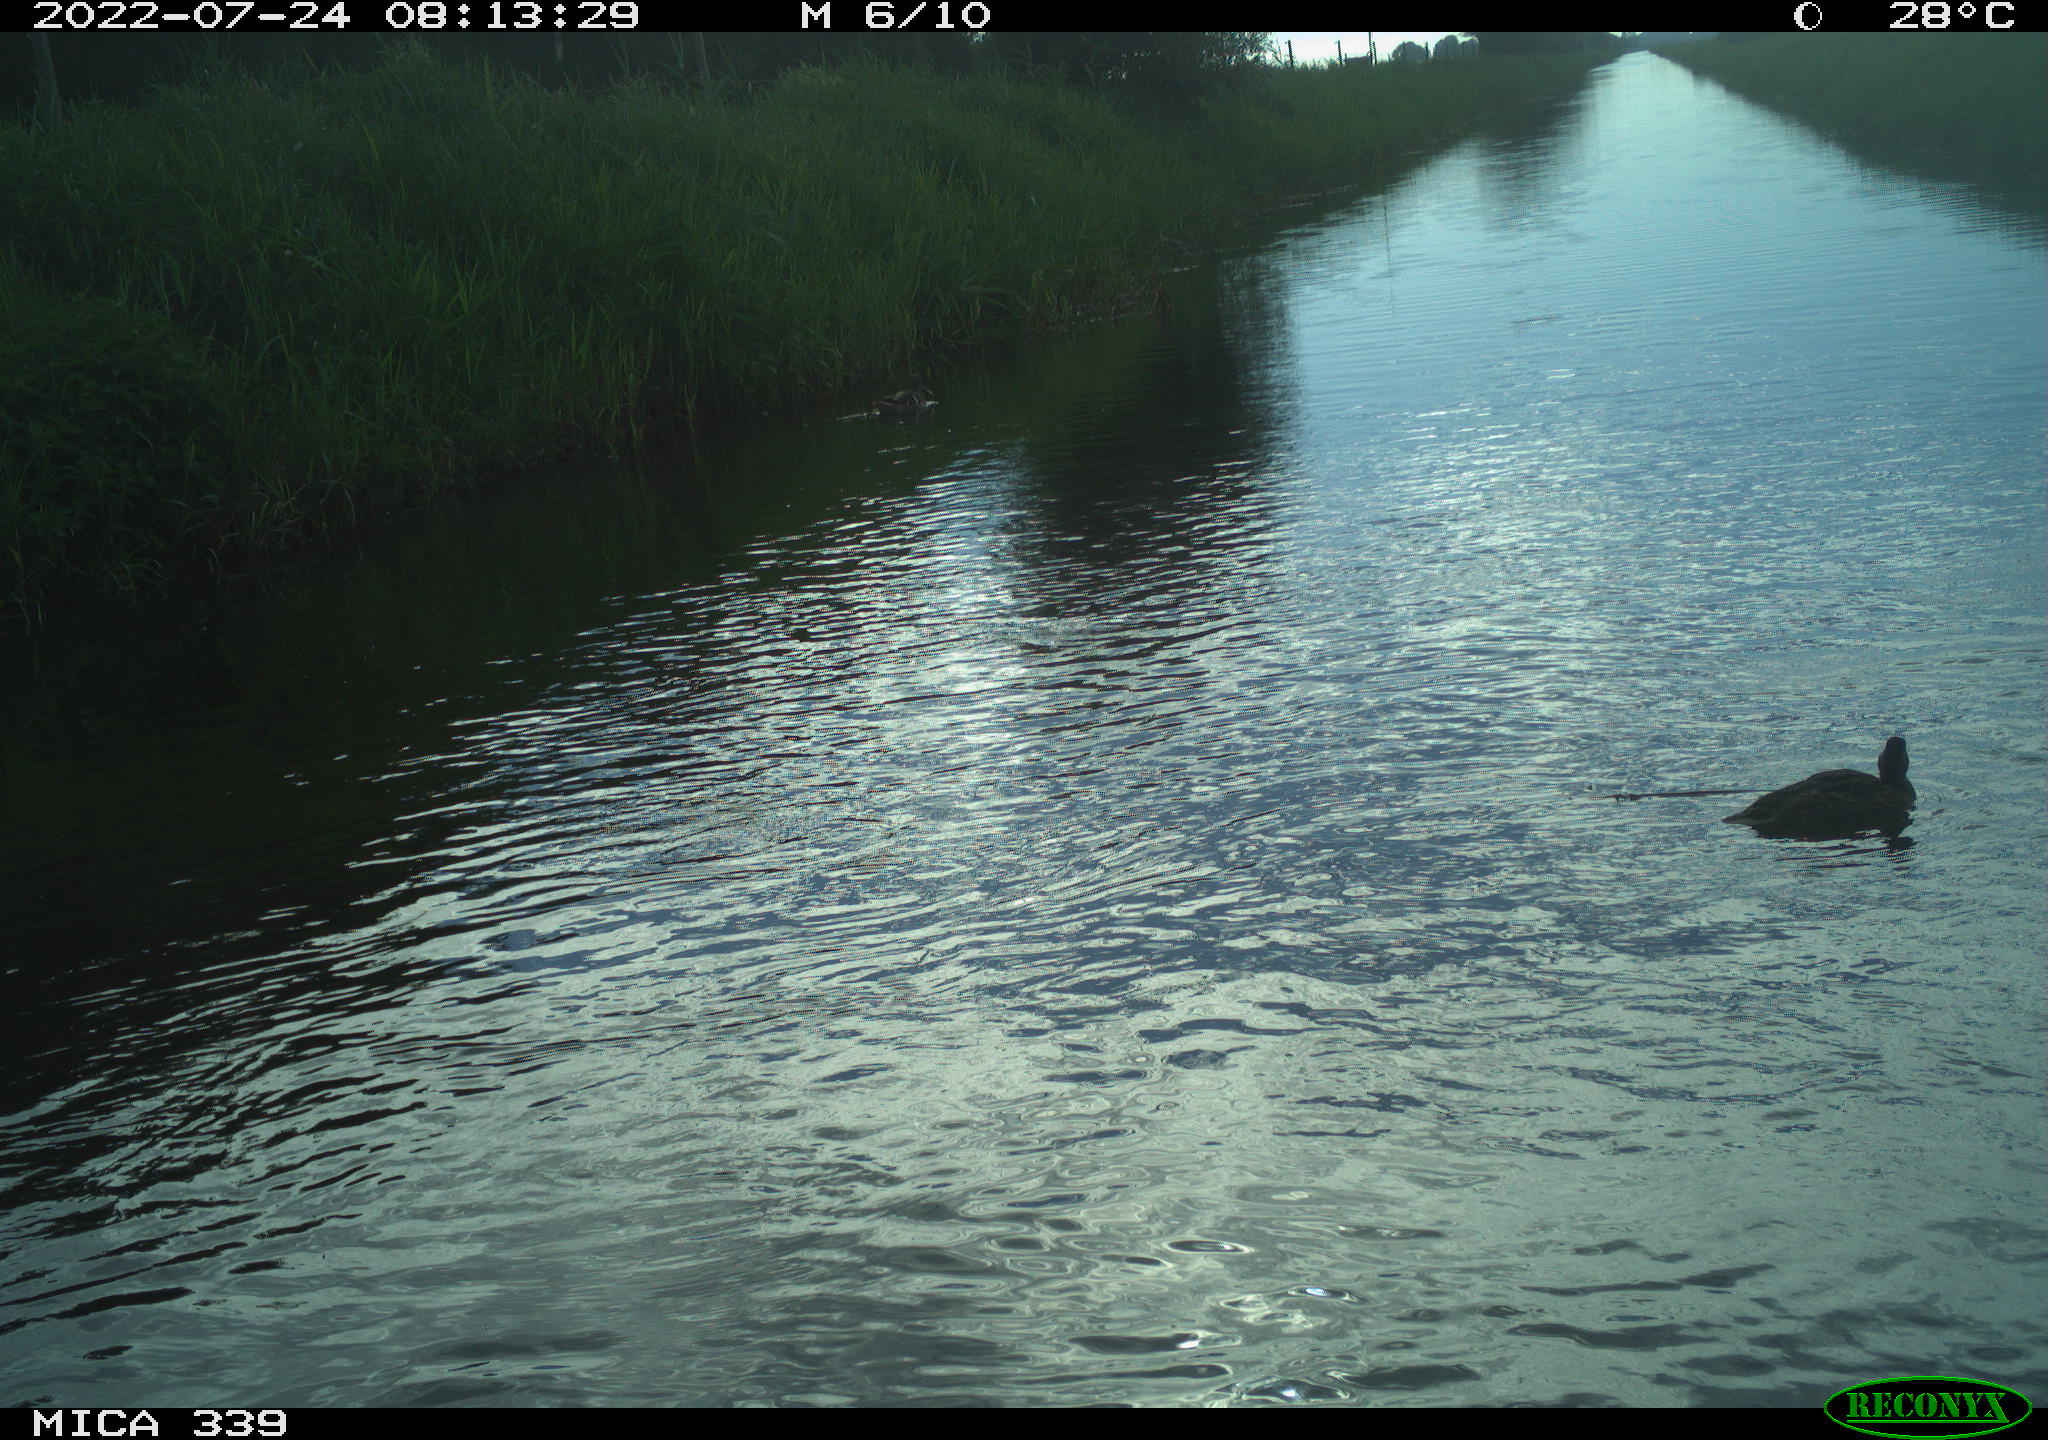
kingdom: Animalia
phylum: Chordata
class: Aves
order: Anseriformes
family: Anatidae
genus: Anas
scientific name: Anas platyrhynchos
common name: Mallard
